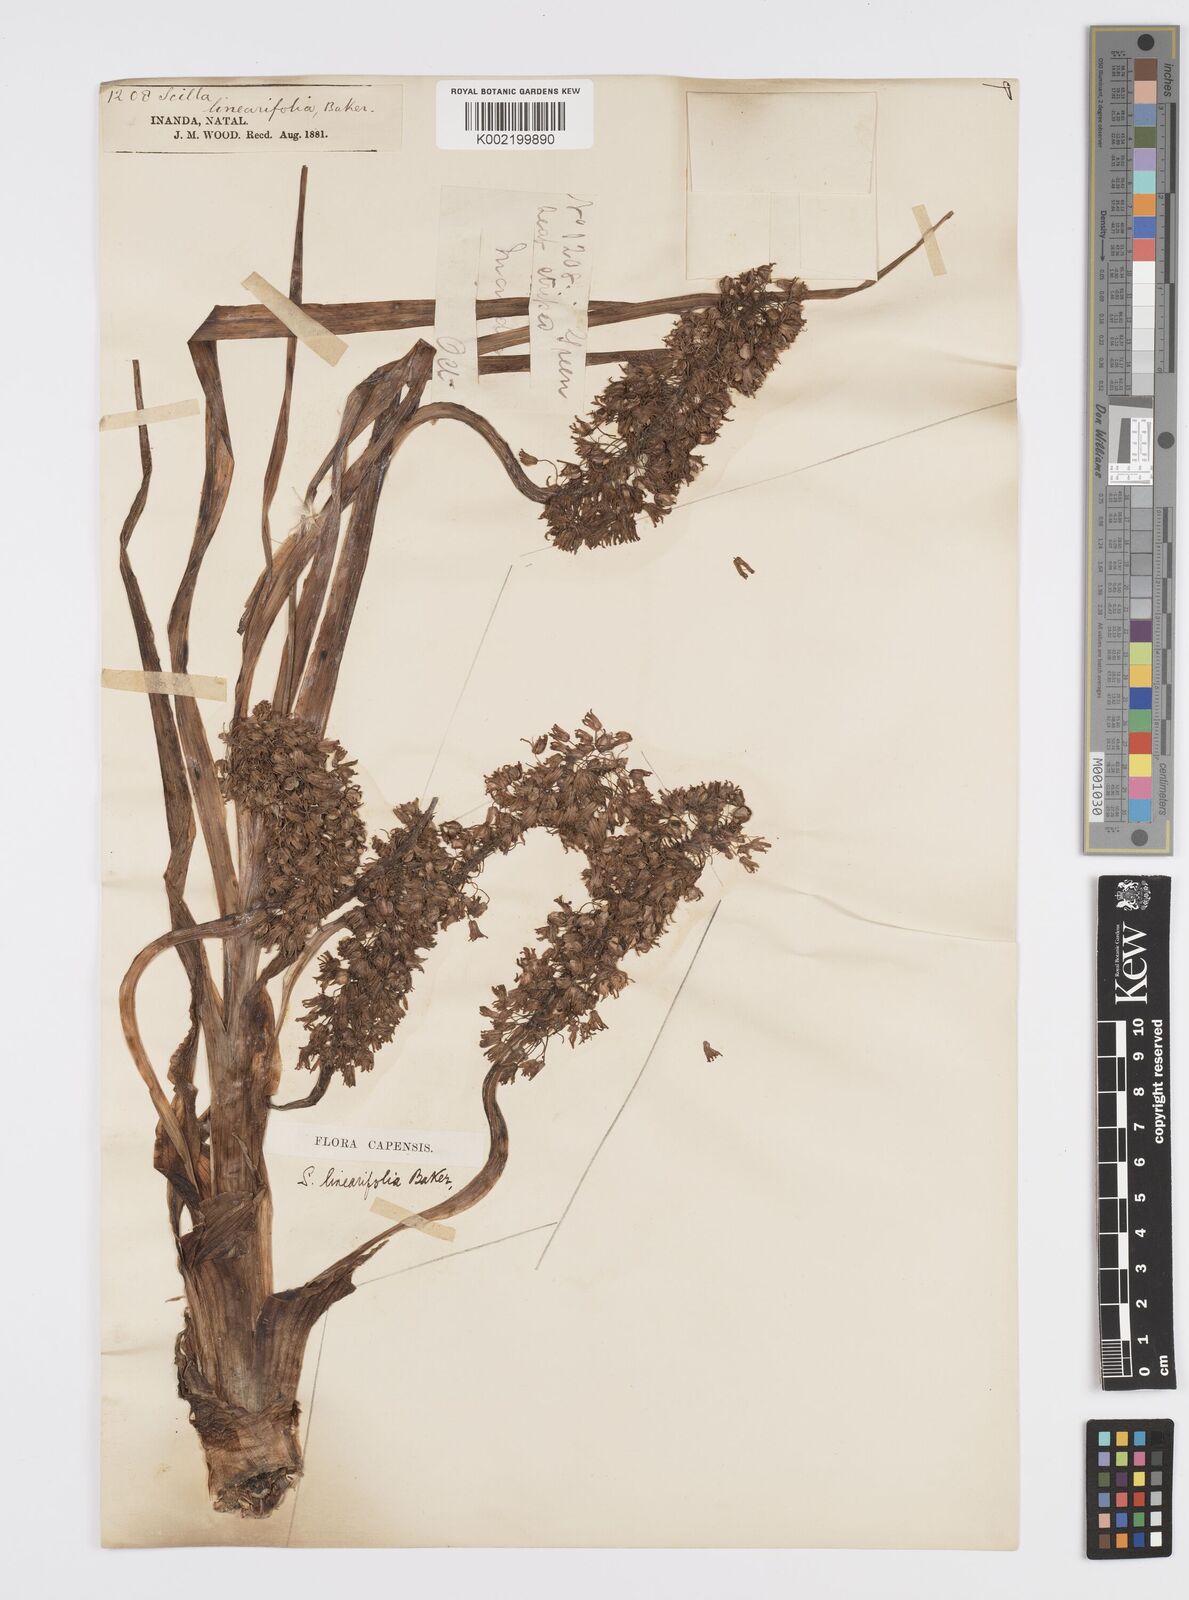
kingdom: Plantae
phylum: Tracheophyta
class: Liliopsida
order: Asparagales
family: Asparagaceae
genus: Ledebouria
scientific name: Ledebouria apertiflora
